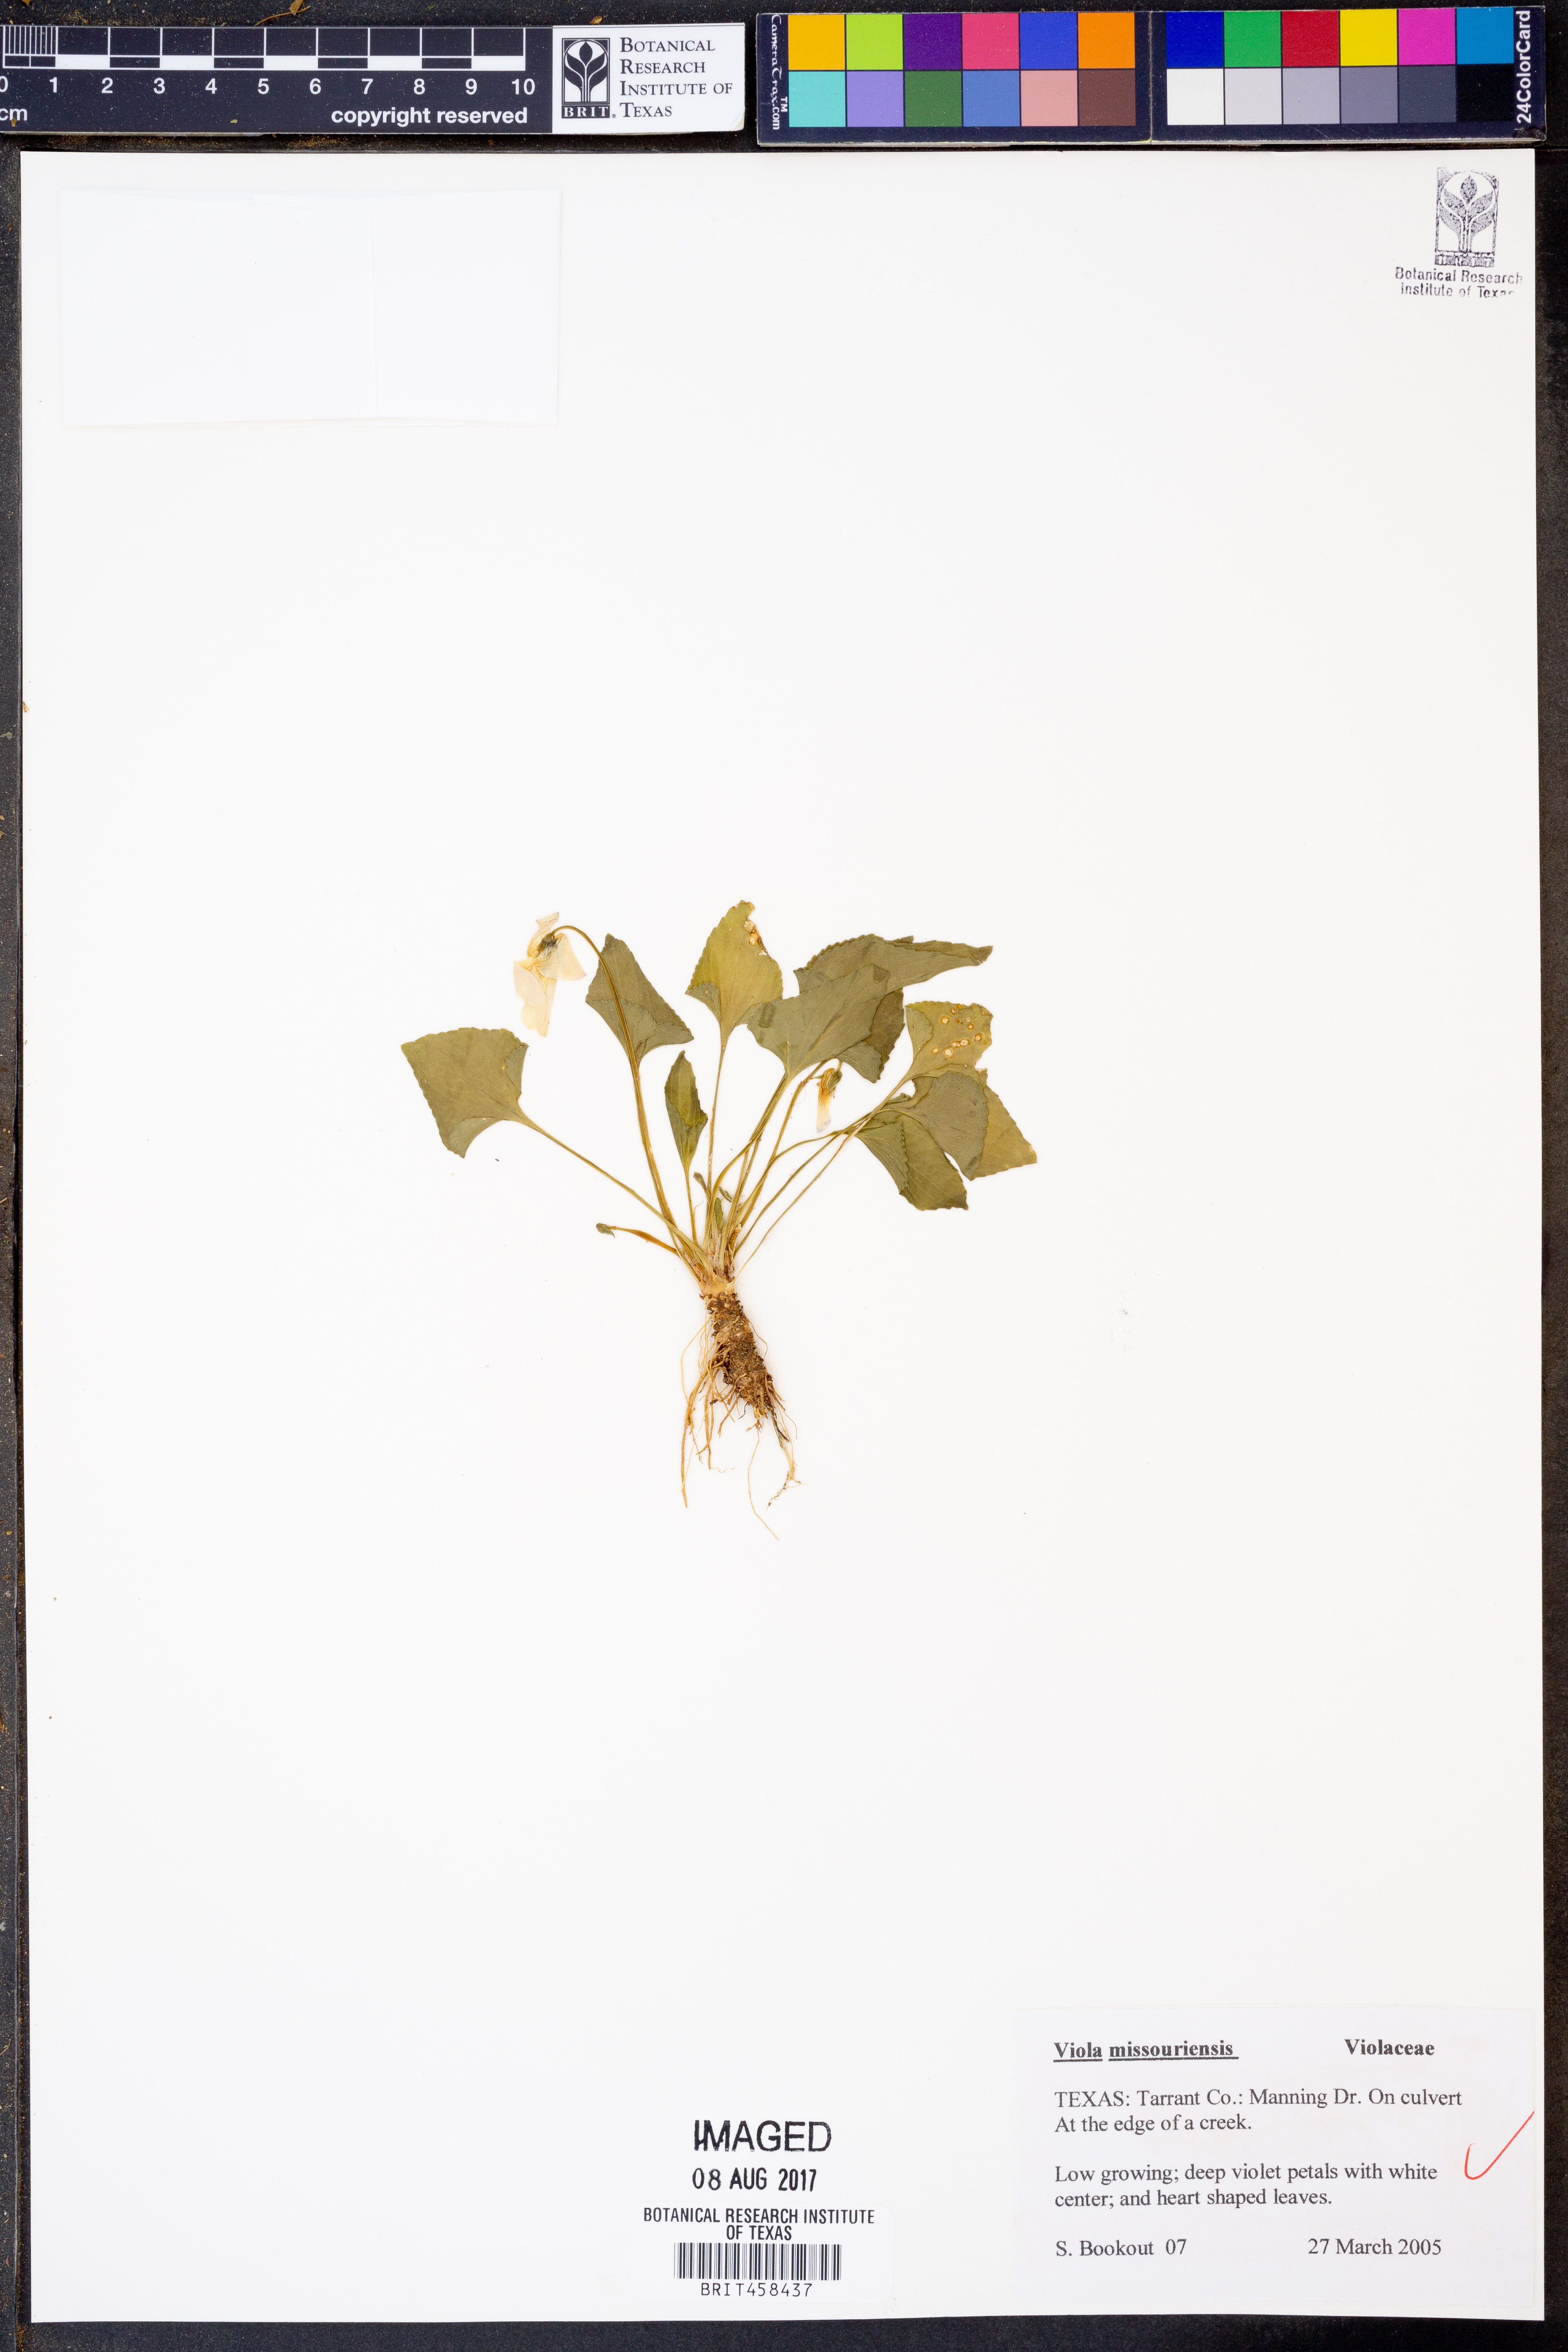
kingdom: Plantae
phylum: Tracheophyta
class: Magnoliopsida
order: Malpighiales
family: Violaceae
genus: Viola
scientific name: Viola missouriensis
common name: Missouri violet
